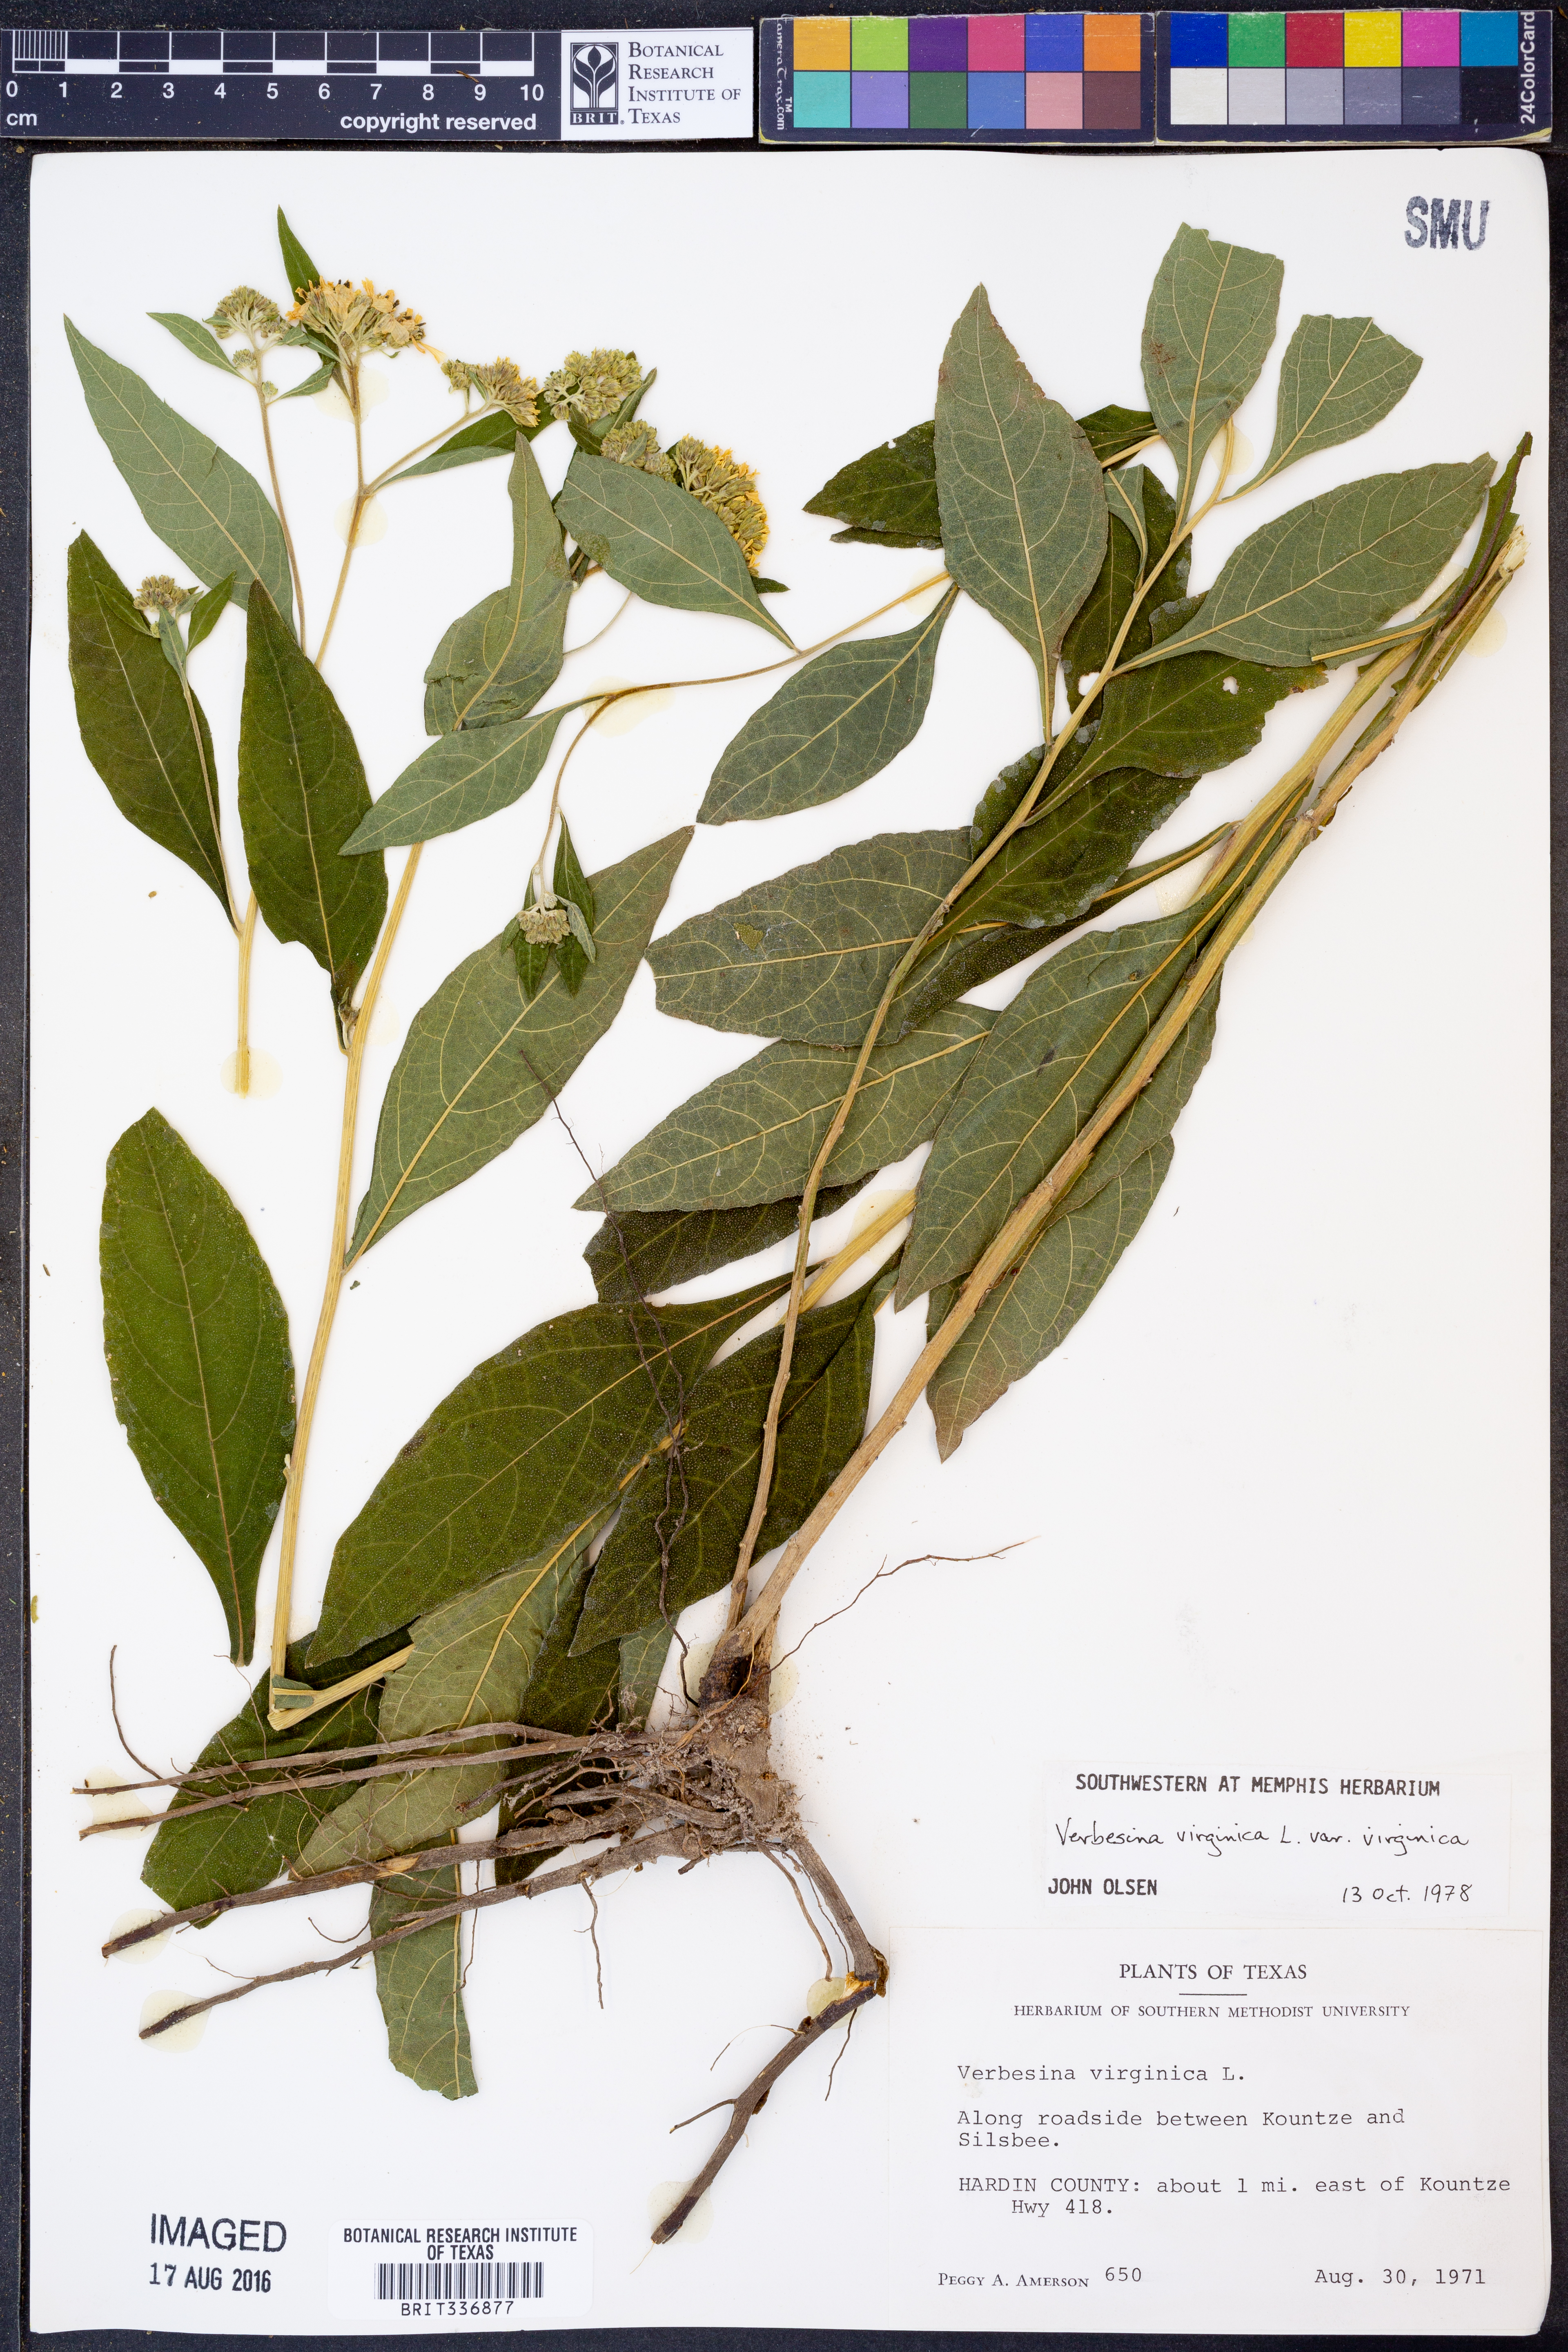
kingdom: Plantae
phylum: Tracheophyta
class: Magnoliopsida
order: Asterales
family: Asteraceae
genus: Verbesina
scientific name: Verbesina virginica
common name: Frostweed
